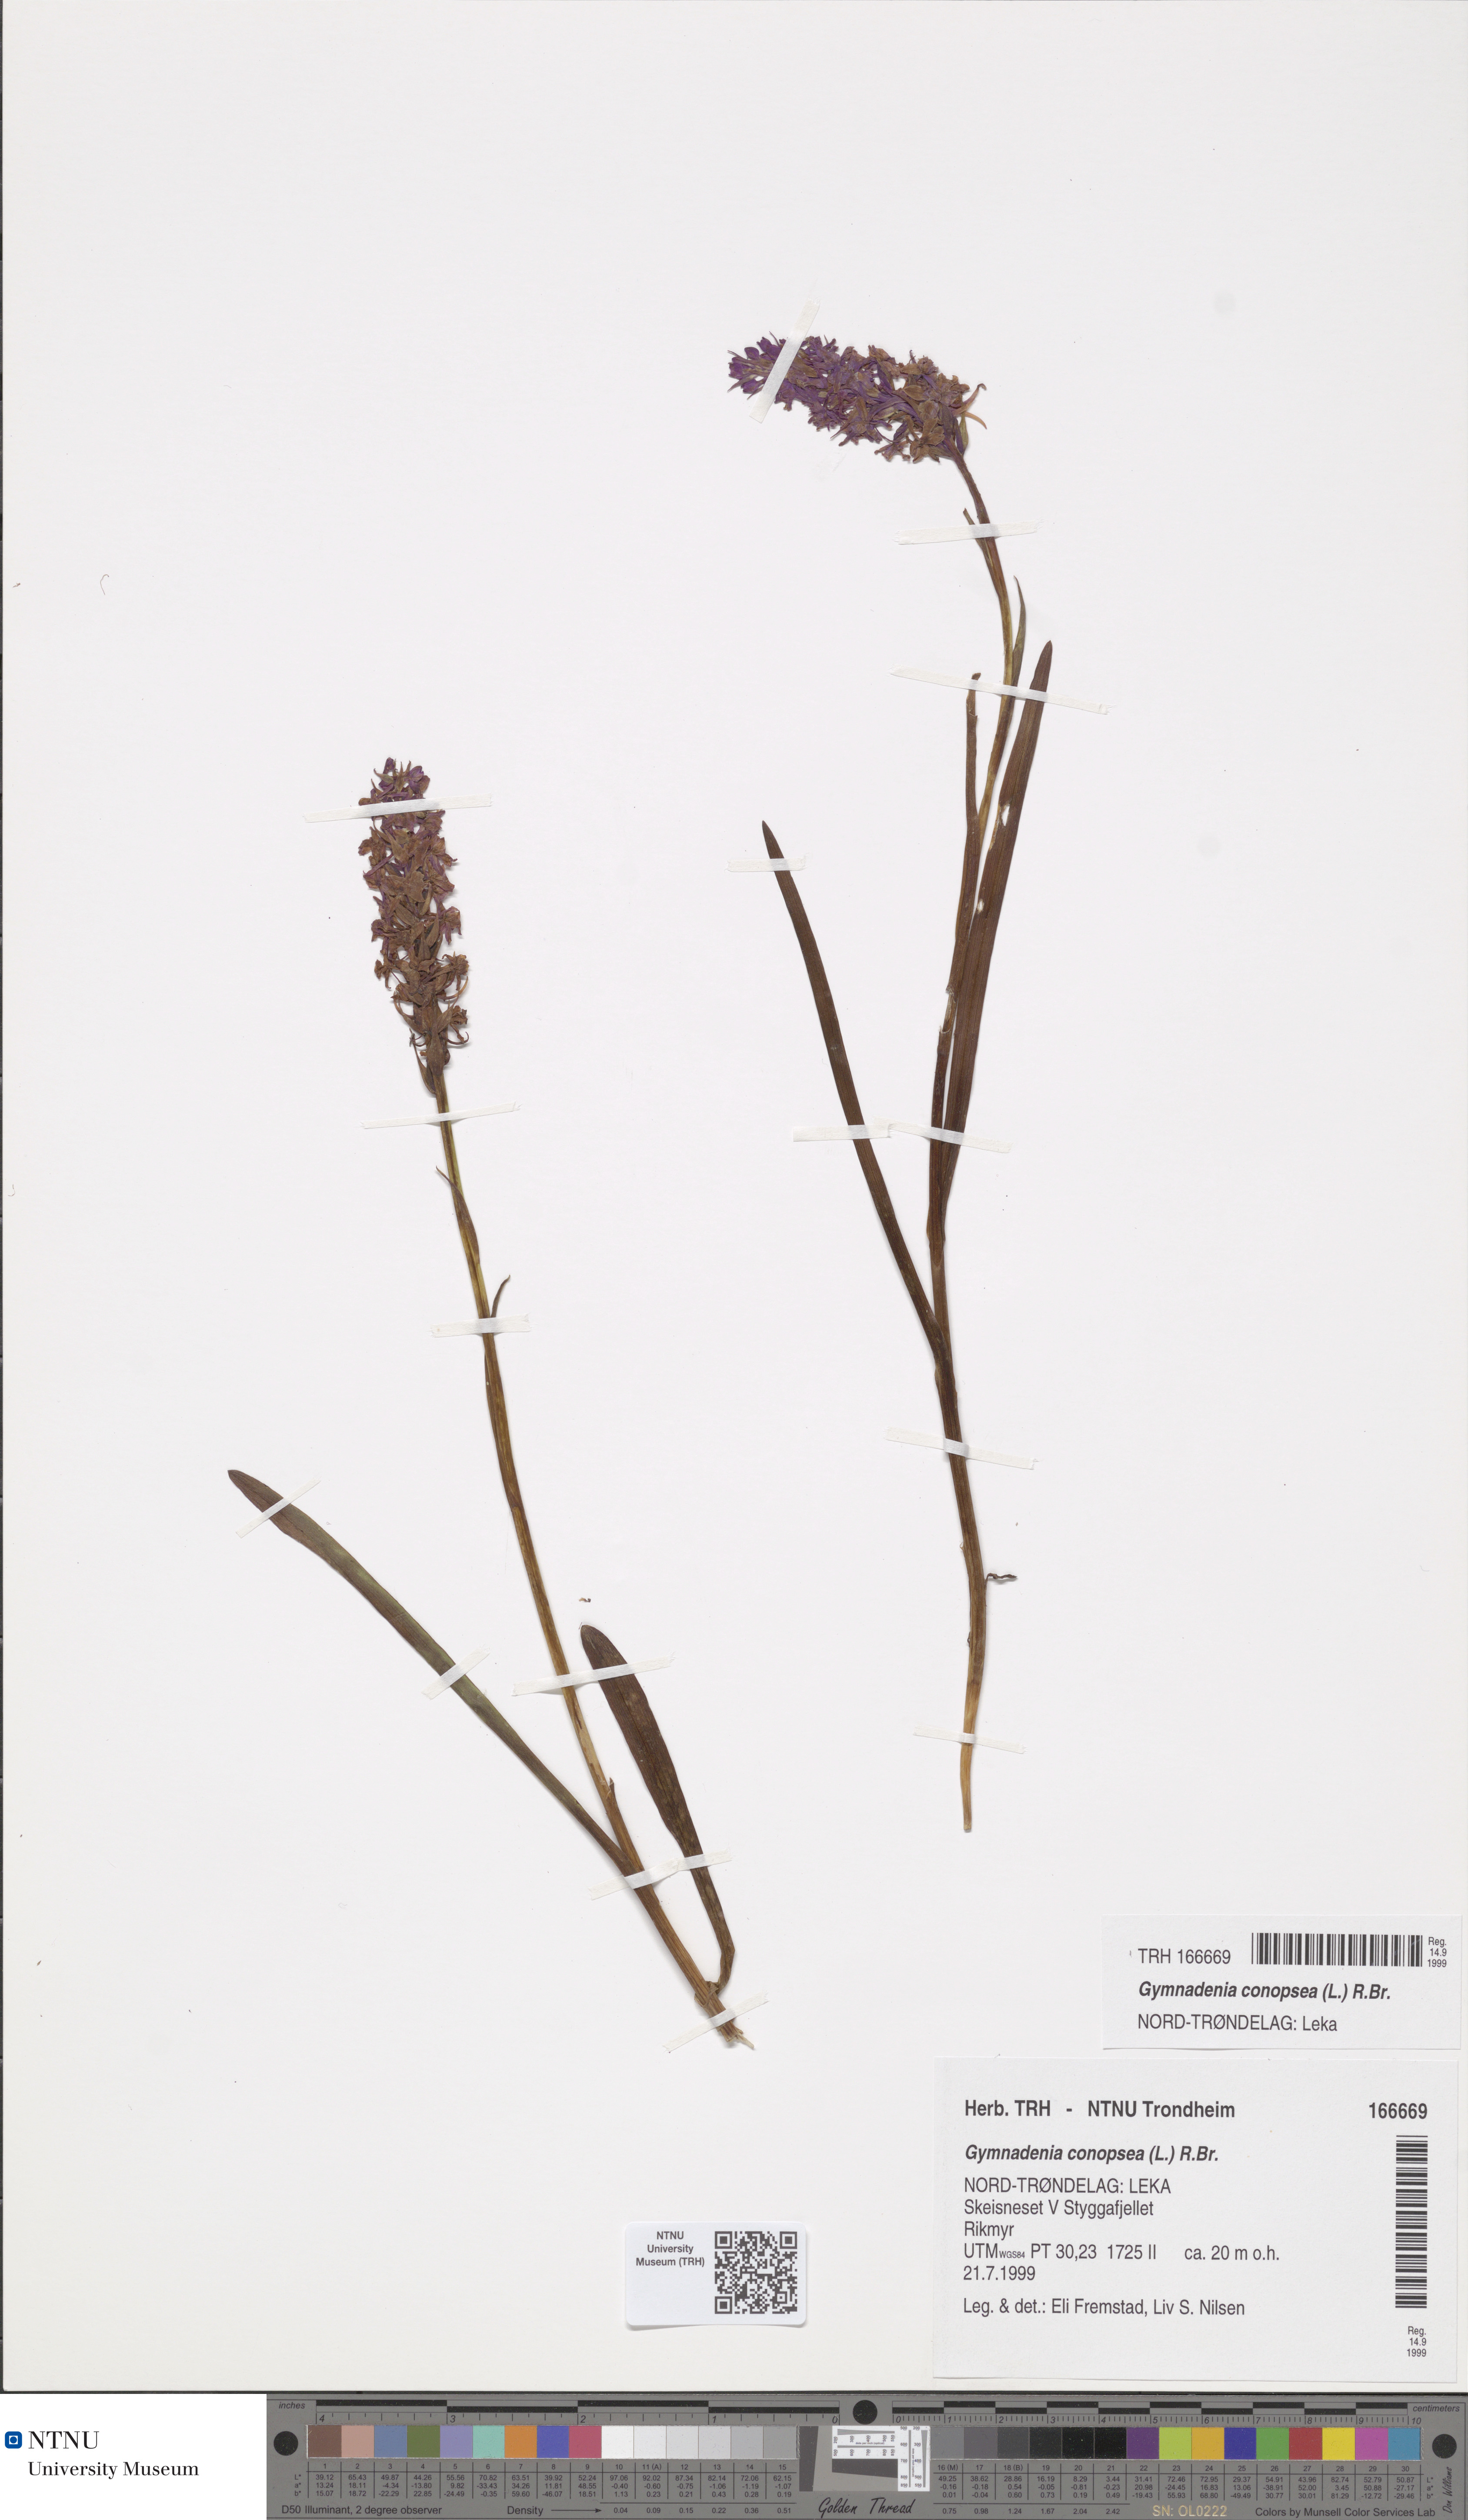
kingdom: Plantae
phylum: Tracheophyta
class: Liliopsida
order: Asparagales
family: Orchidaceae
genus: Gymnadenia
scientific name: Gymnadenia conopsea
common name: Fragrant orchid
